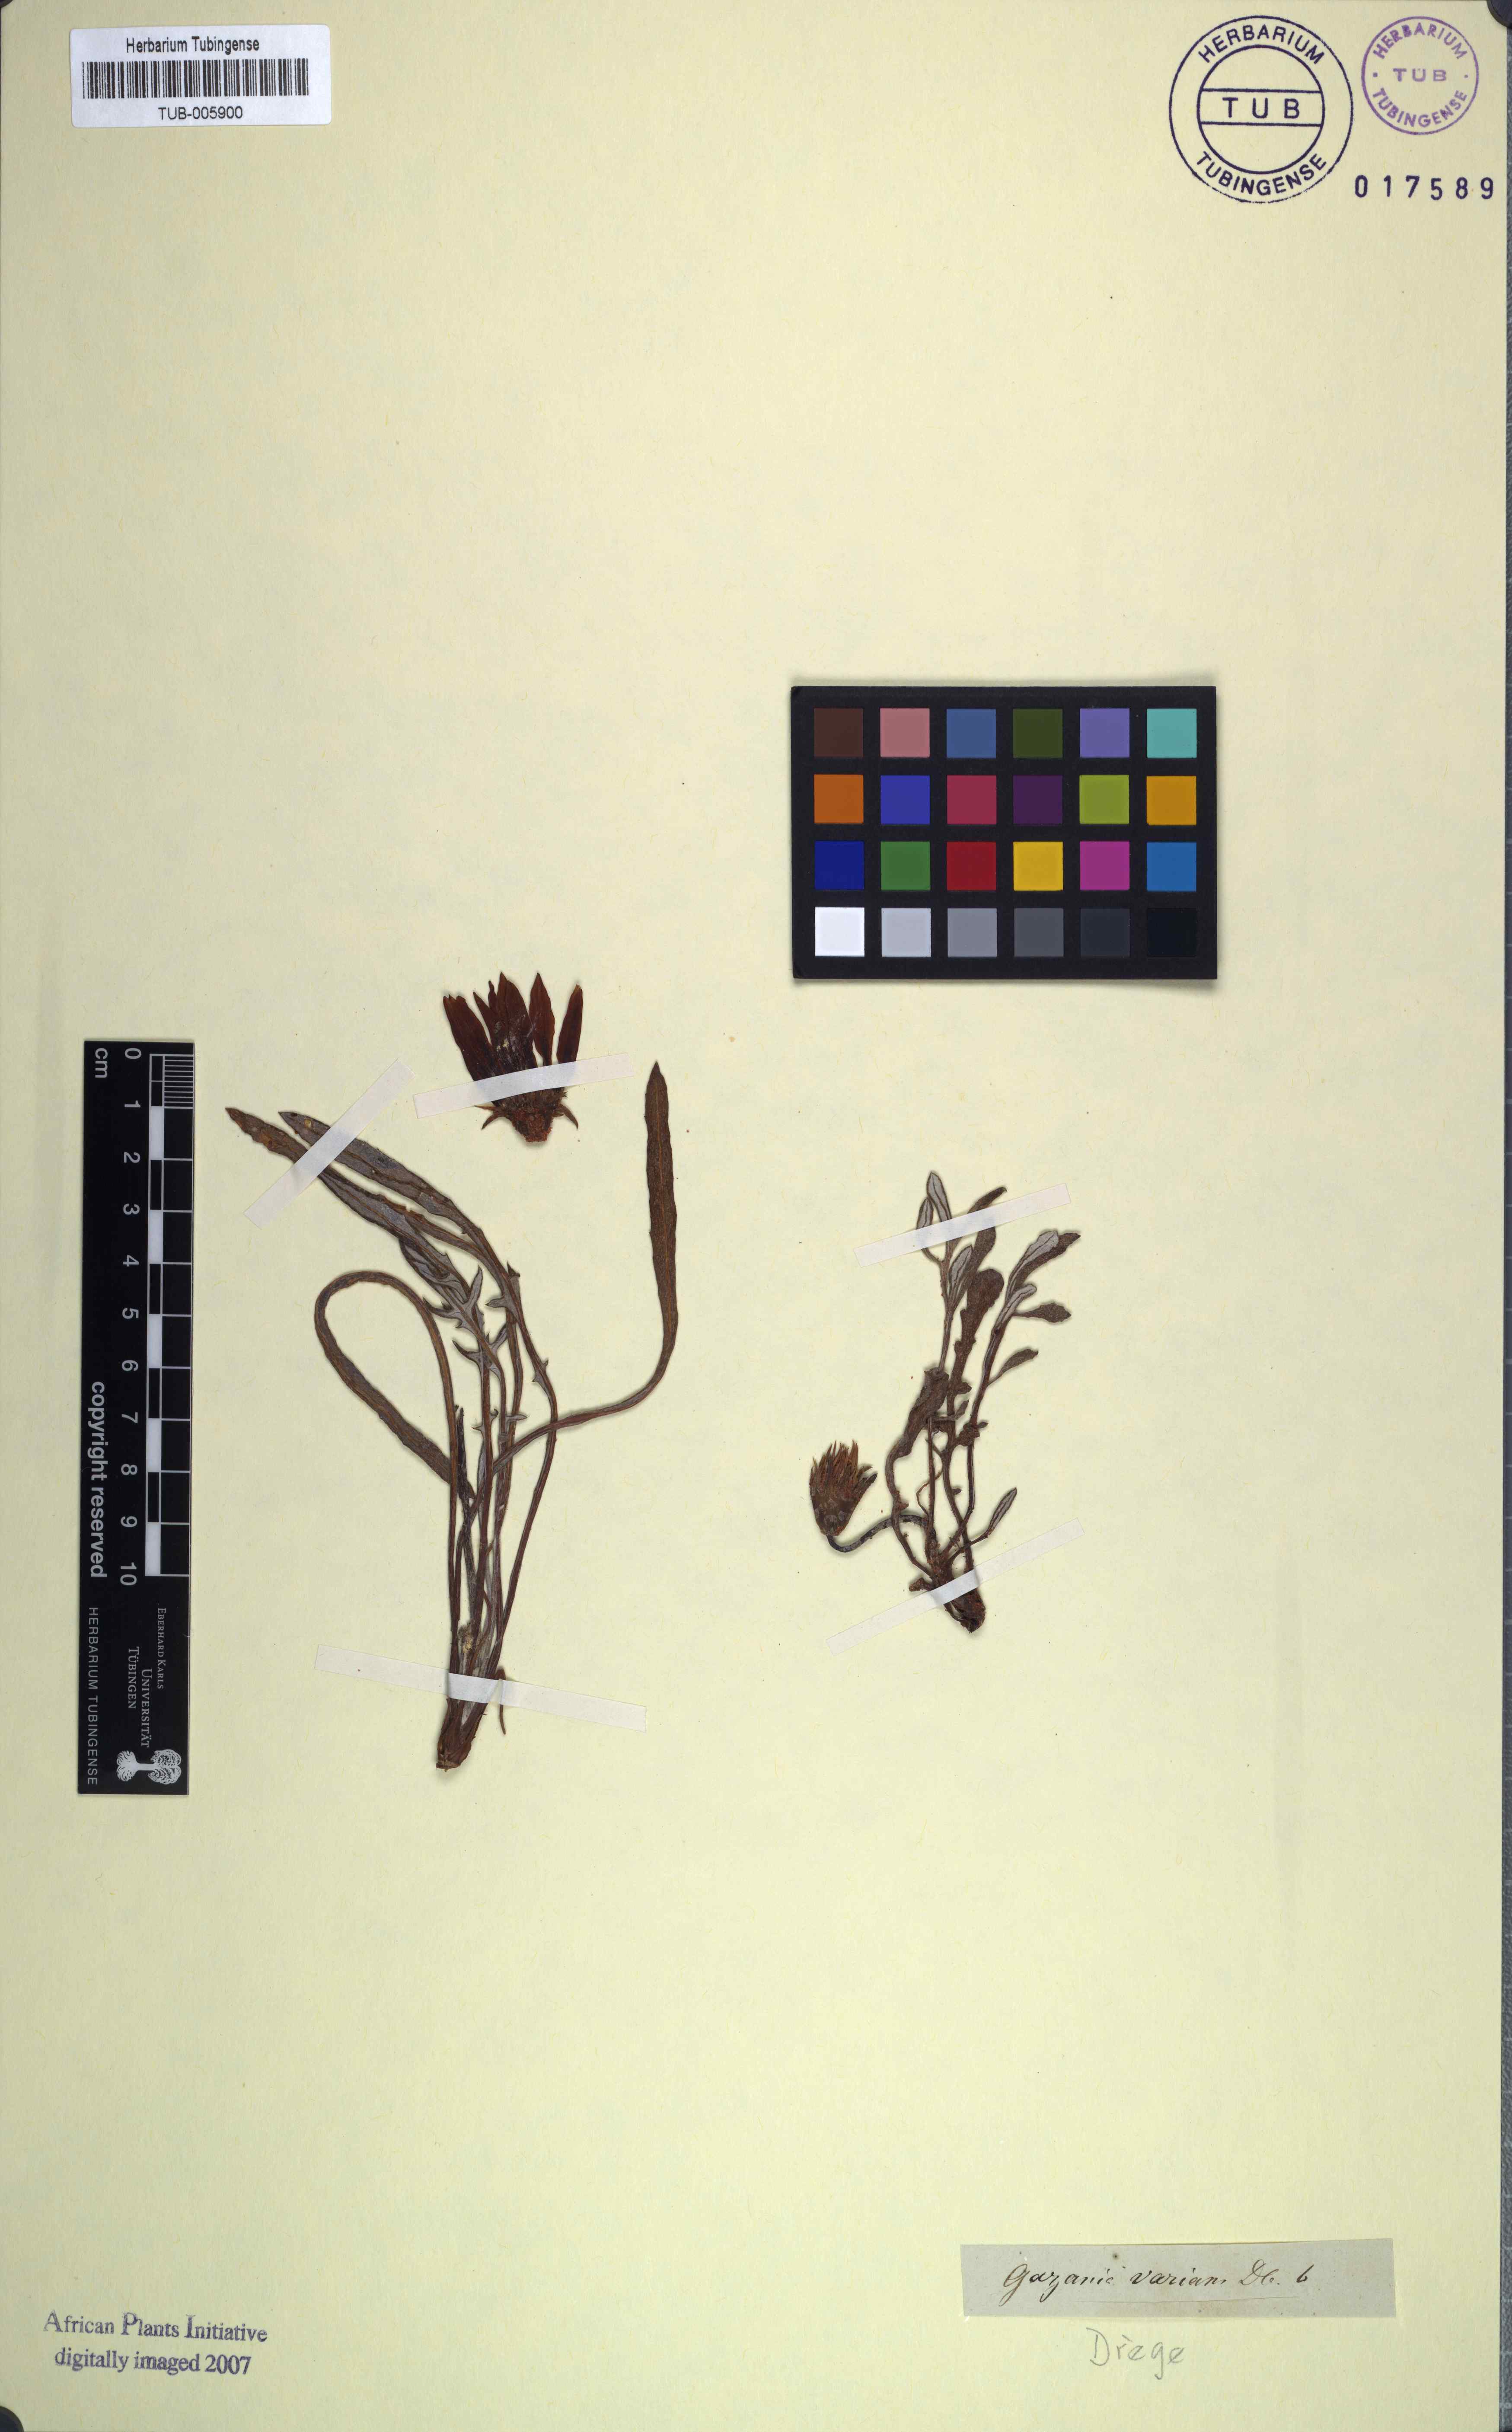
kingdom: Plantae
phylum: Tracheophyta
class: Magnoliopsida
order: Asterales
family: Asteraceae
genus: Gazania
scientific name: Gazania krebsiana
